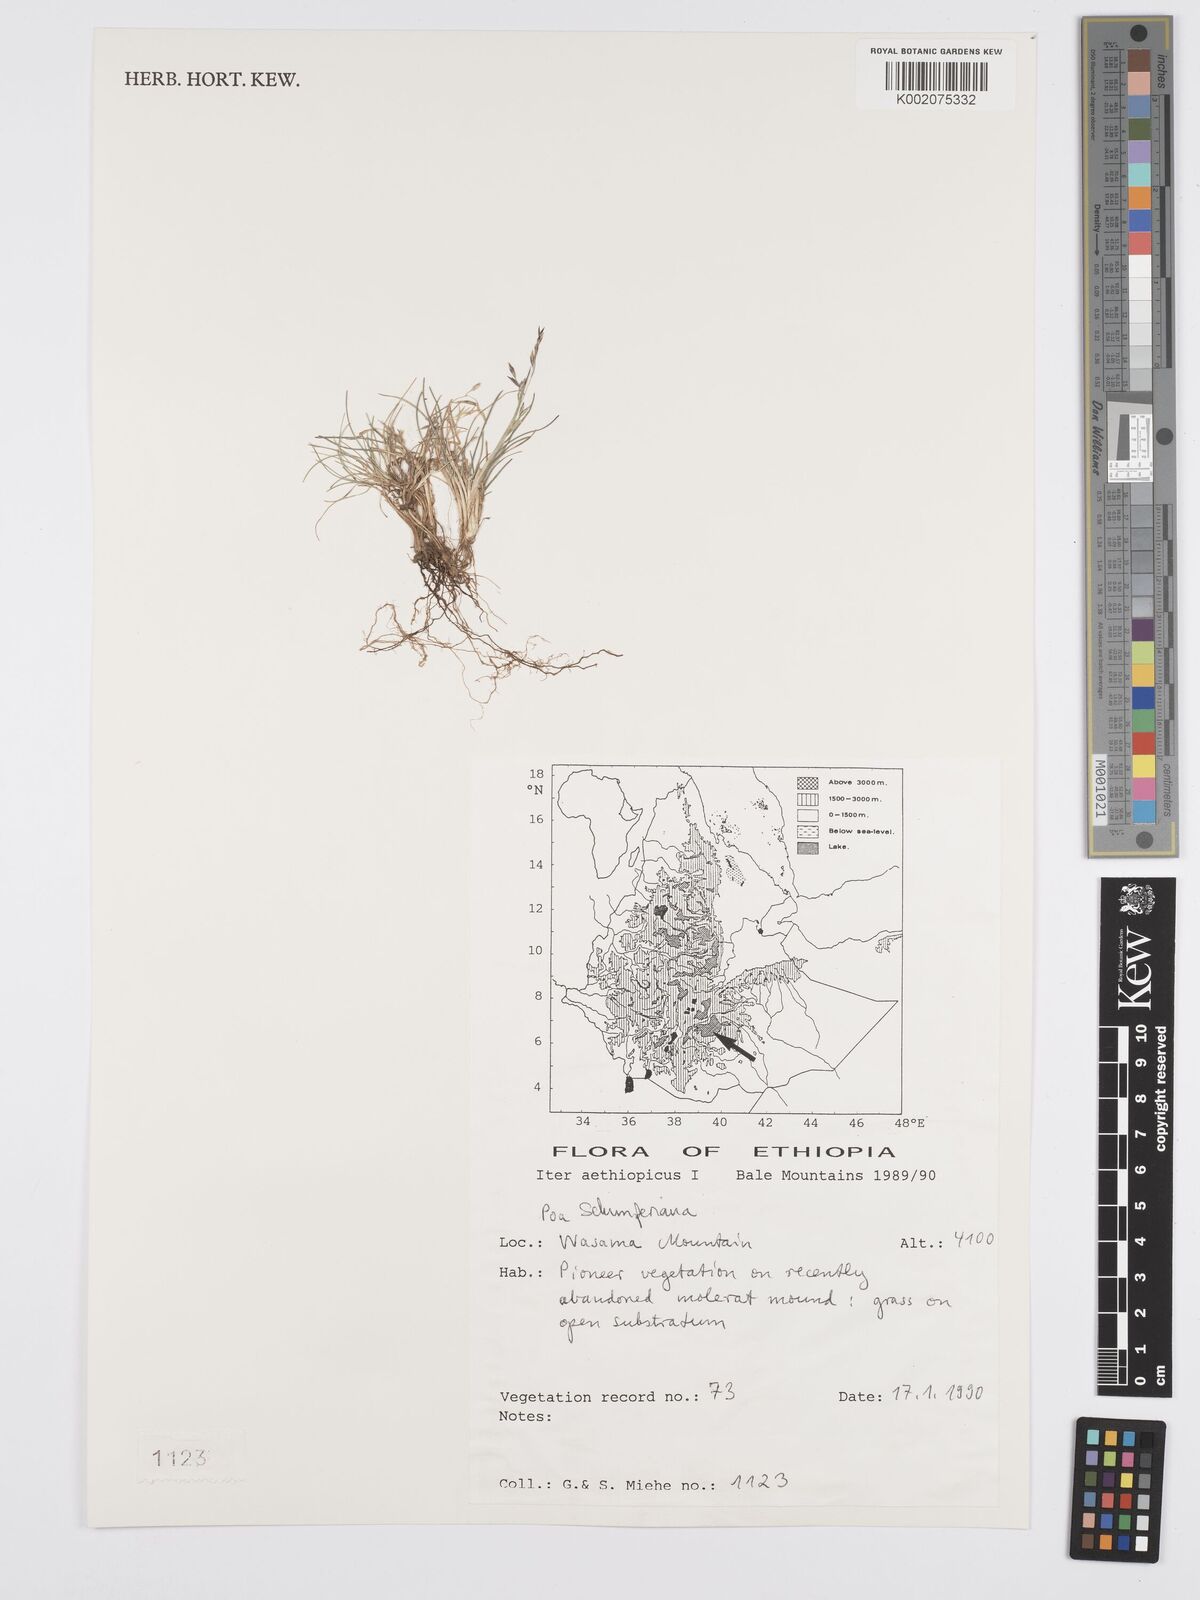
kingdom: Plantae
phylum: Tracheophyta
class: Liliopsida
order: Poales
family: Poaceae
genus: Poa
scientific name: Poa schimperiana
